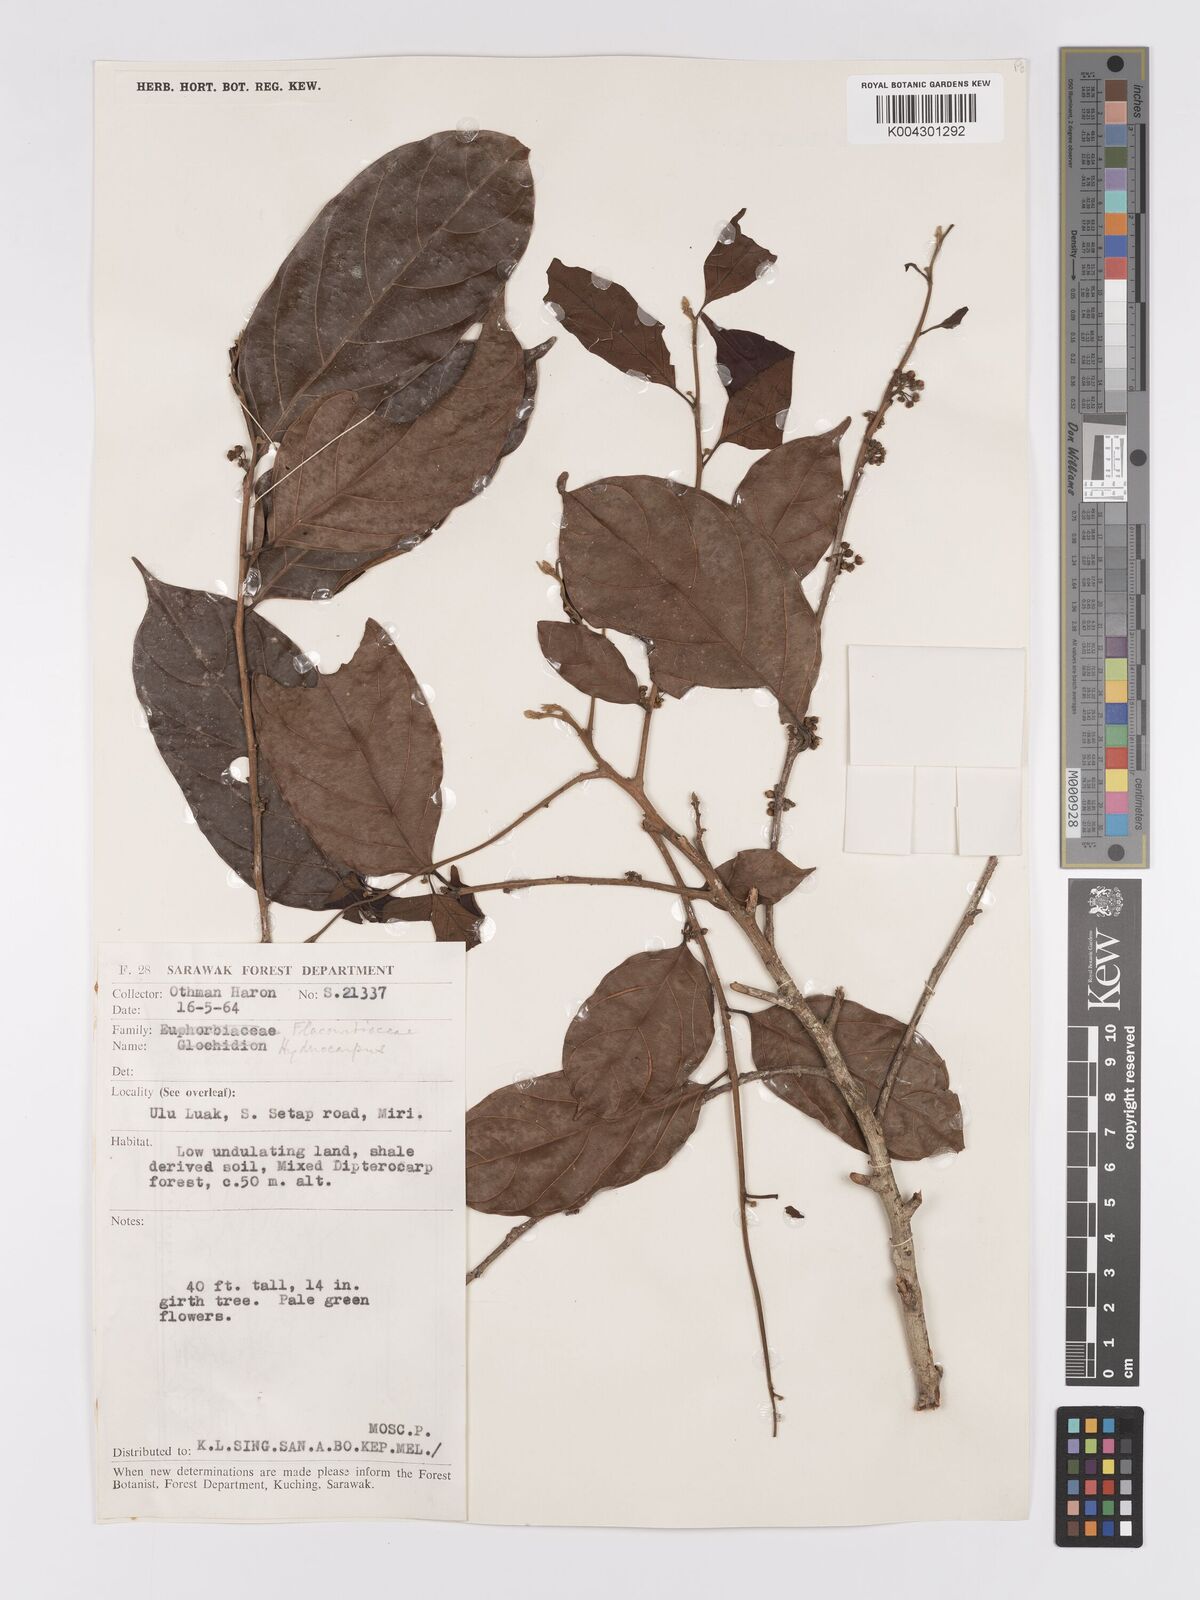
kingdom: Plantae
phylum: Tracheophyta
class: Magnoliopsida
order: Malpighiales
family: Achariaceae
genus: Hydnocarpus
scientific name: Hydnocarpus
